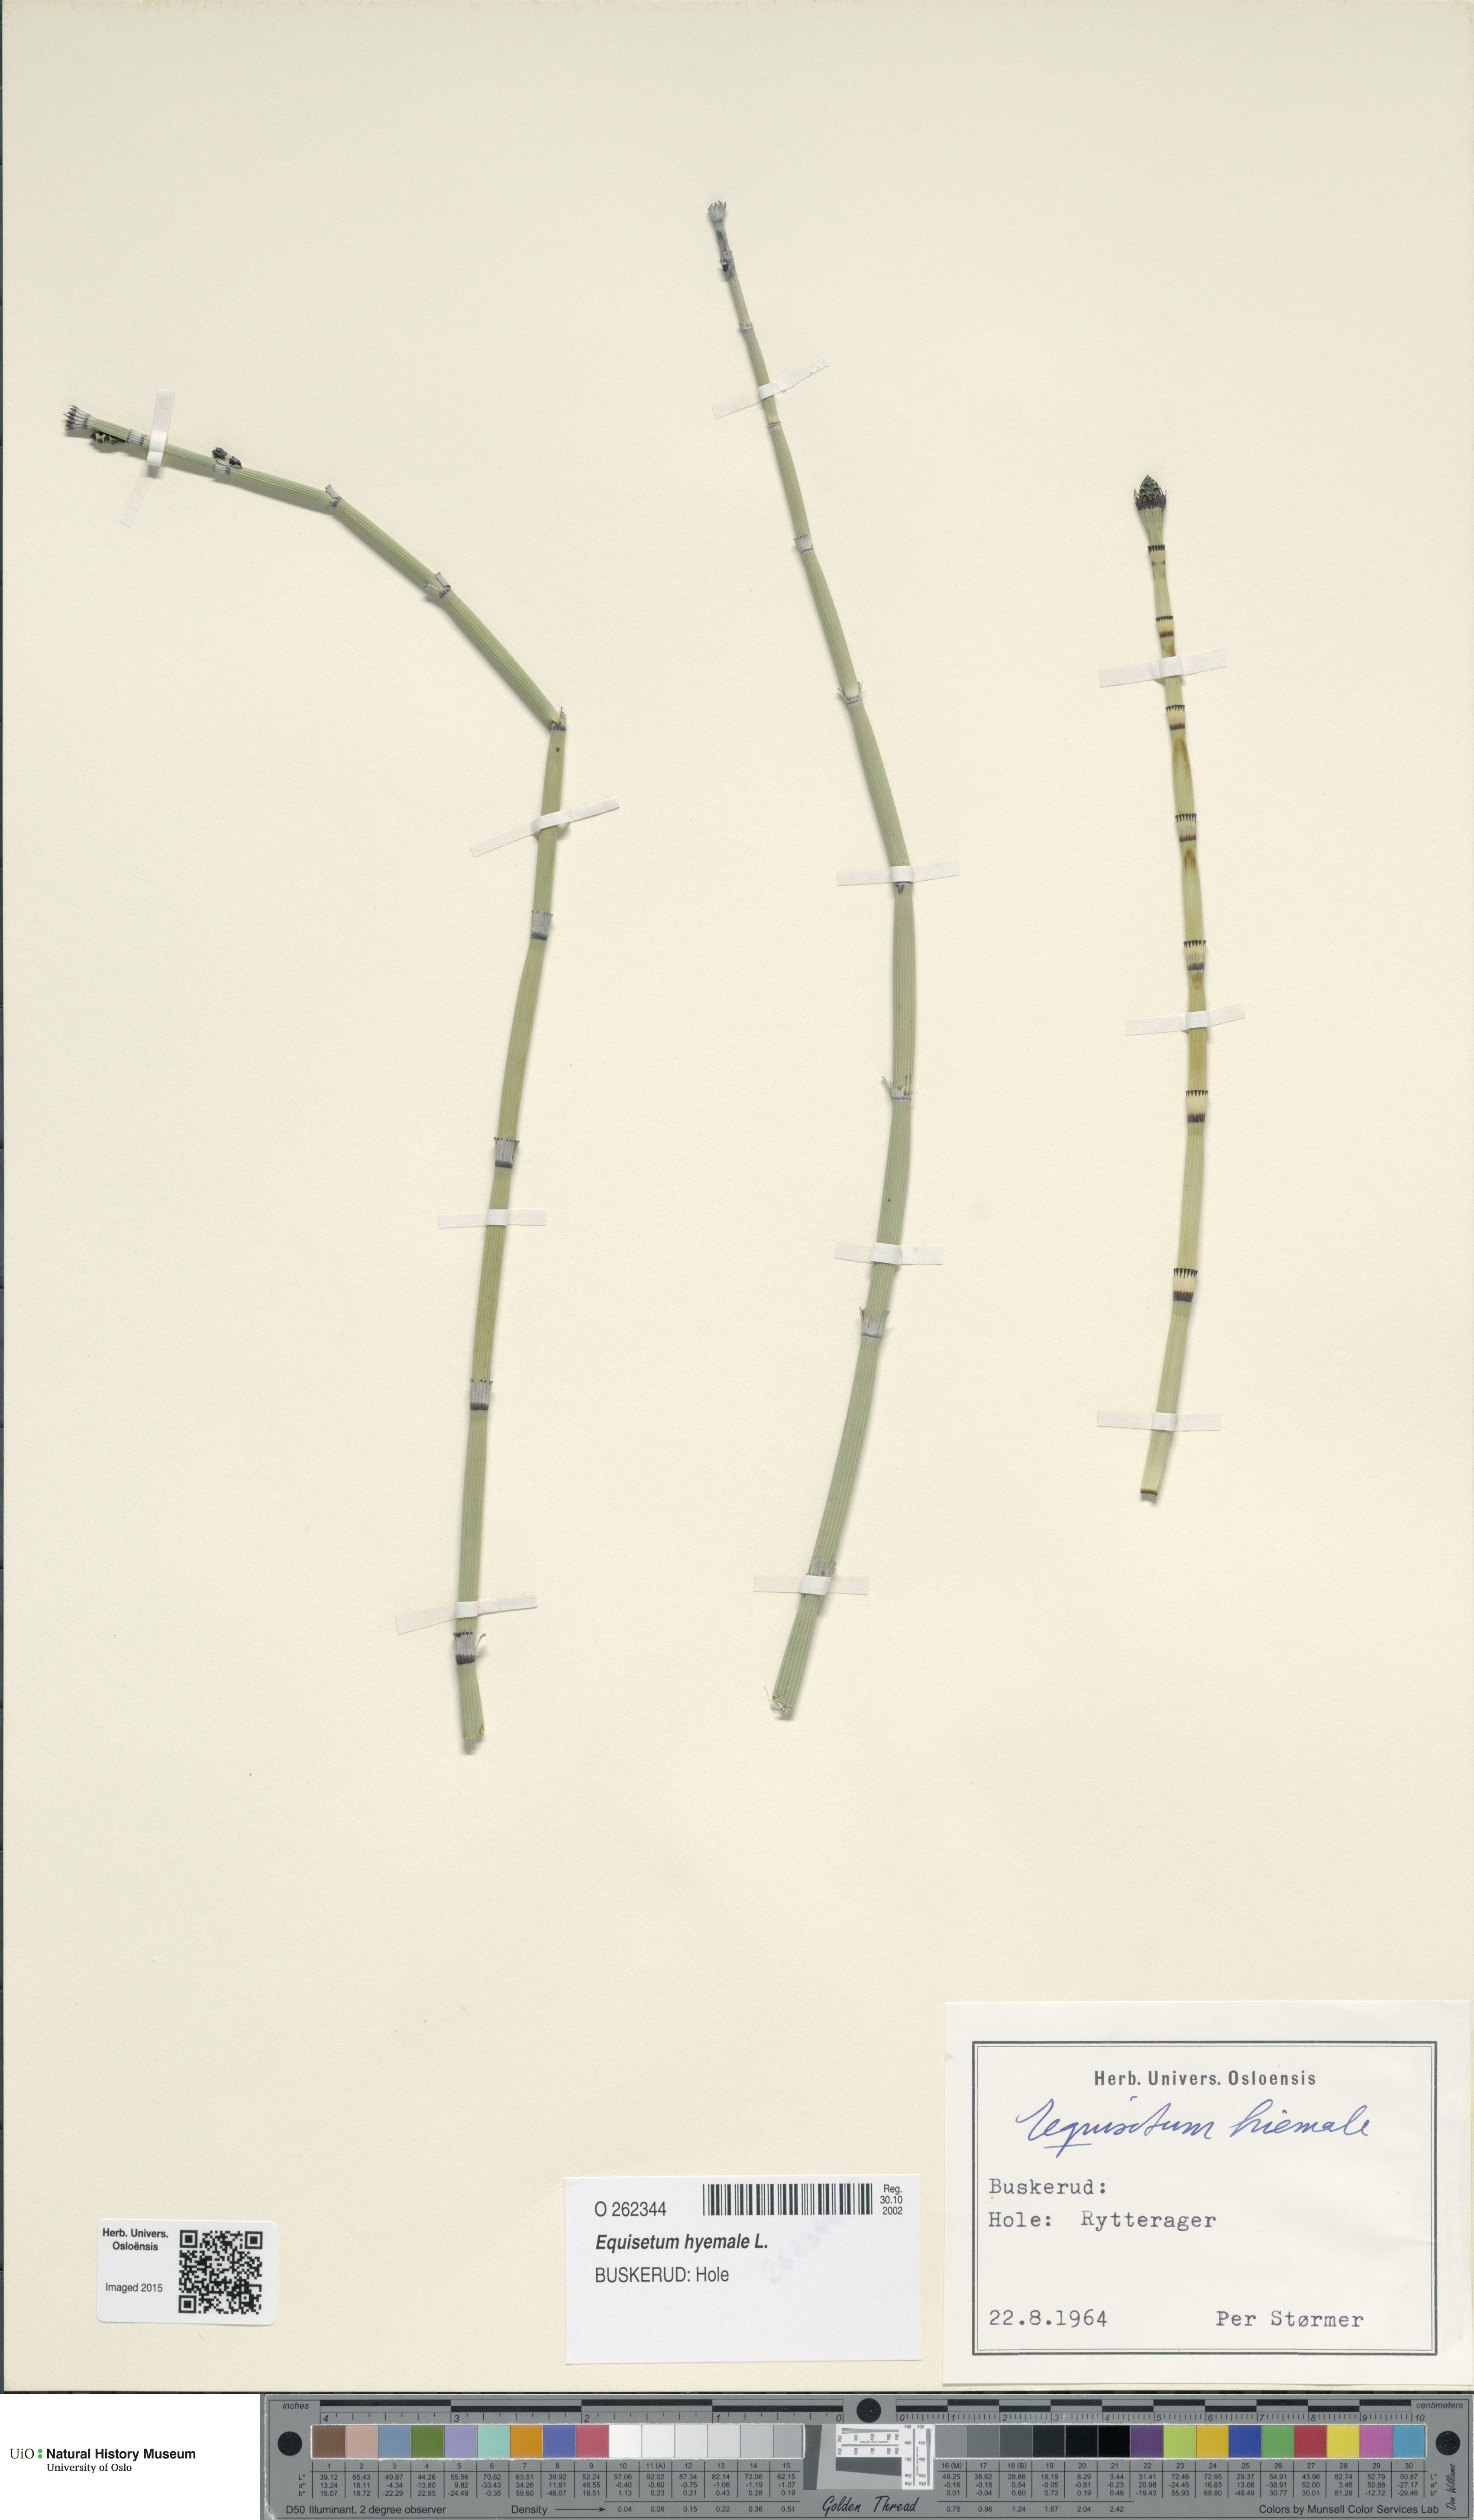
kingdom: Plantae
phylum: Tracheophyta
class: Polypodiopsida
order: Equisetales
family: Equisetaceae
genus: Equisetum
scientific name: Equisetum hyemale
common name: Rough horsetail
